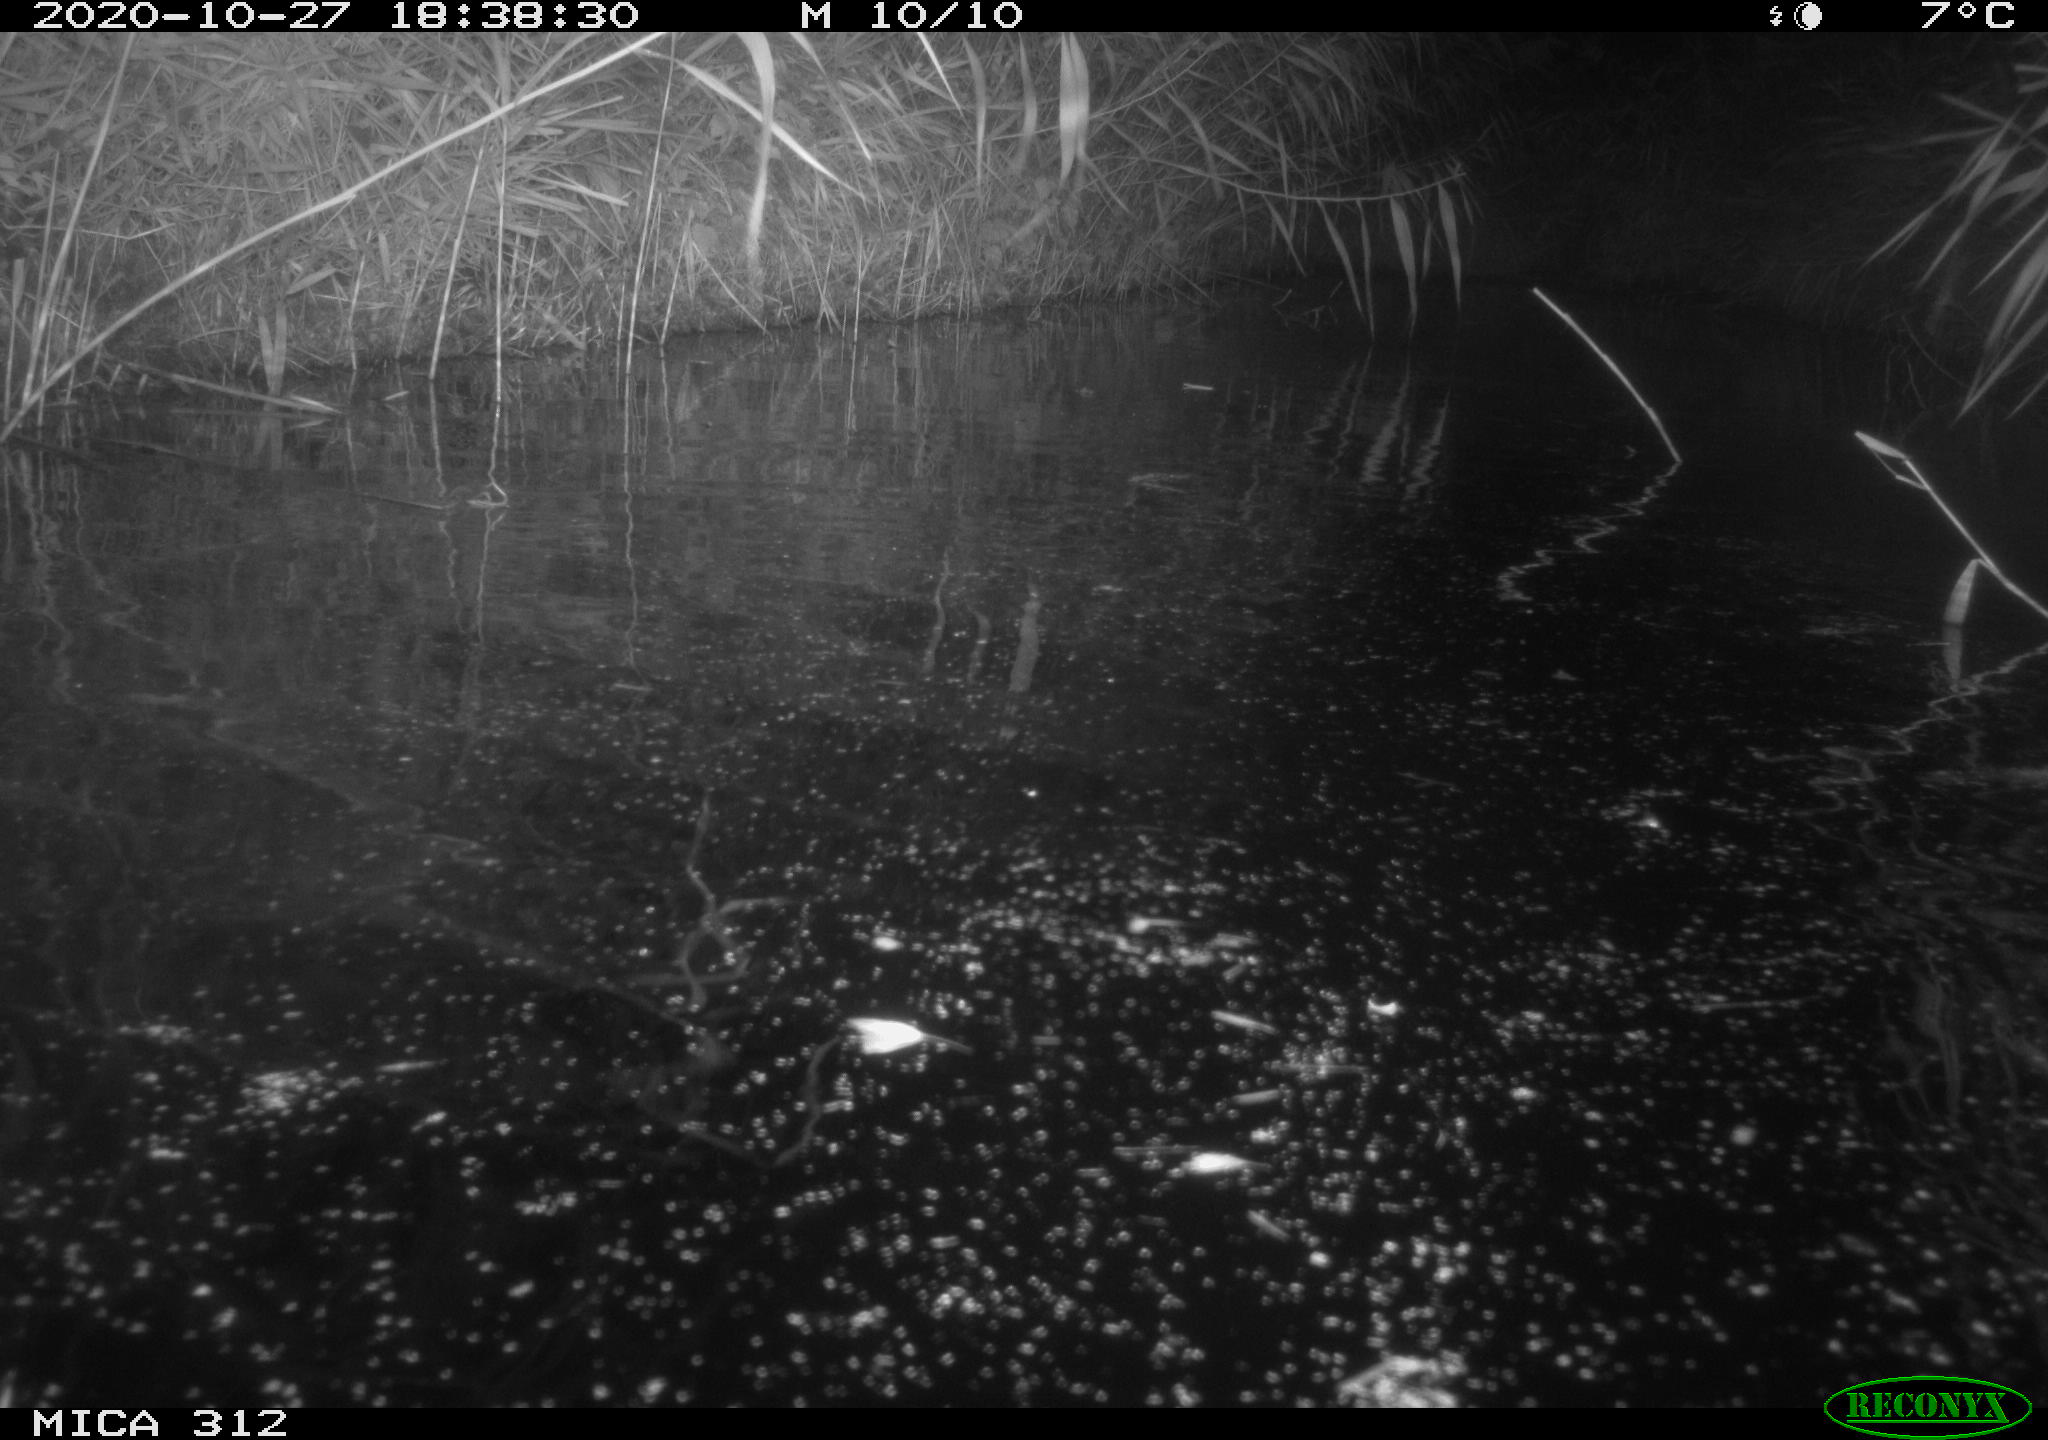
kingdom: Animalia
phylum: Chordata
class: Mammalia
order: Rodentia
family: Muridae
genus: Rattus
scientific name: Rattus norvegicus
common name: Brown rat
